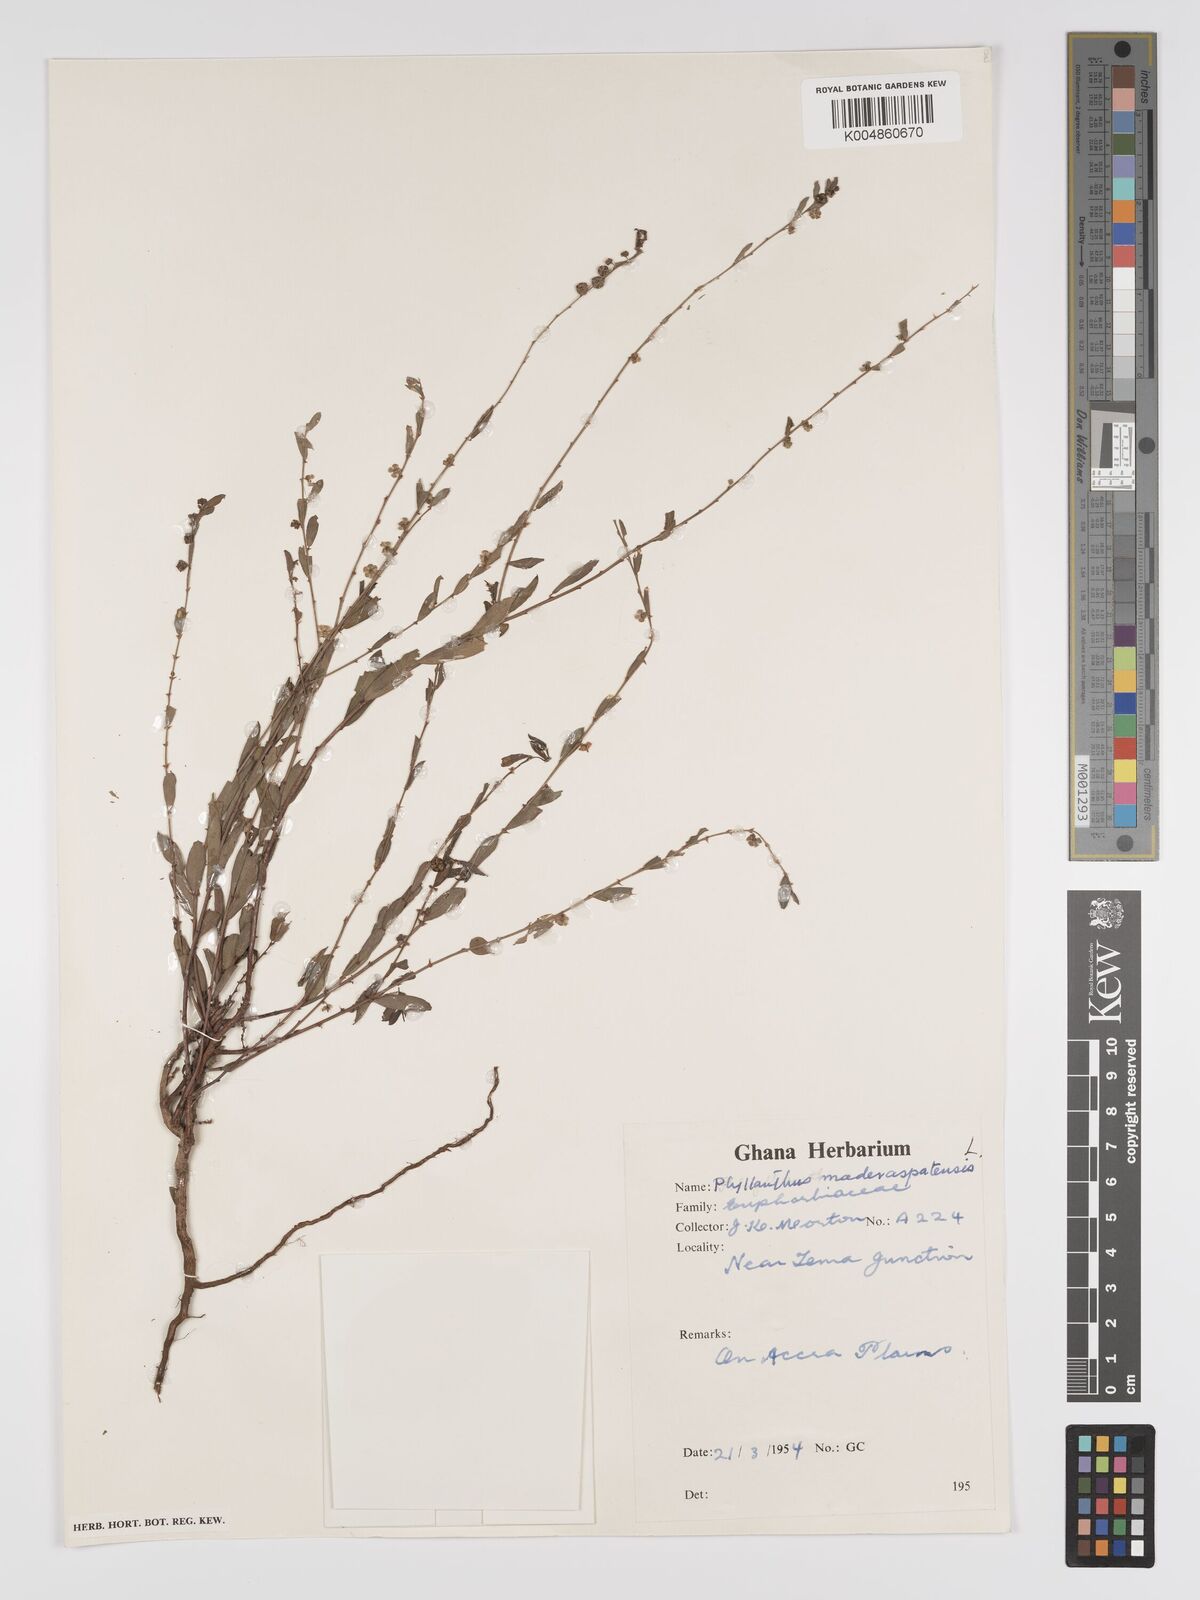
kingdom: Plantae
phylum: Tracheophyta
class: Magnoliopsida
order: Malpighiales
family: Phyllanthaceae
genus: Phyllanthus
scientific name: Phyllanthus
